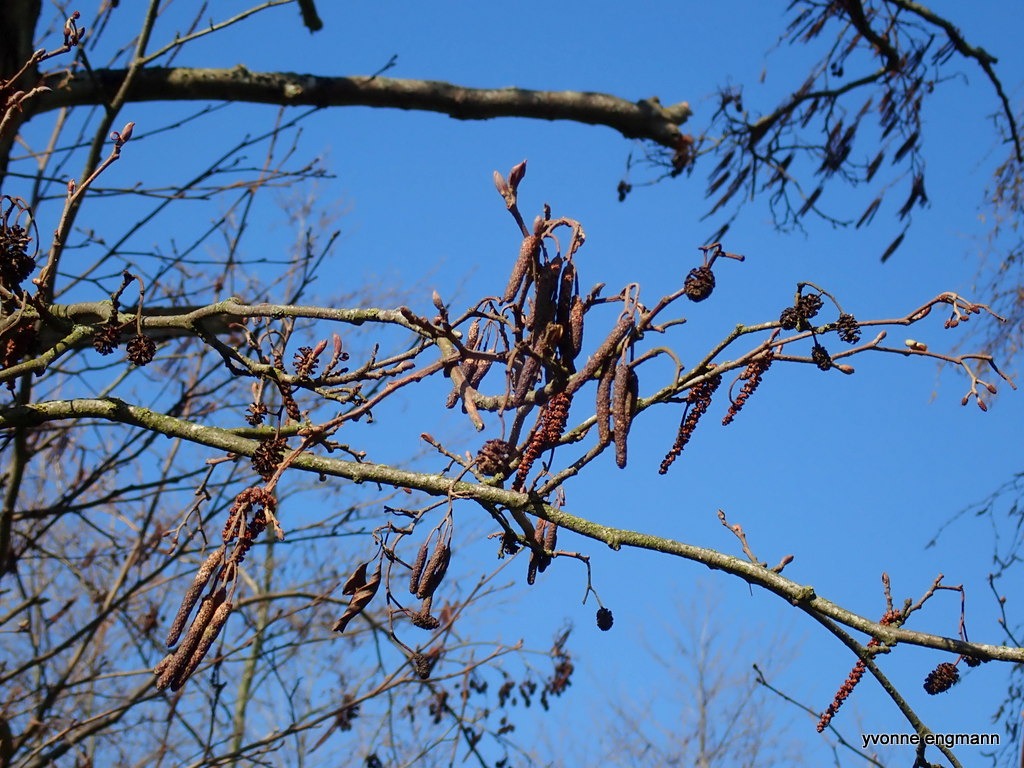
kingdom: Plantae
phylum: Tracheophyta
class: Magnoliopsida
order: Fagales
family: Betulaceae
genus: Alnus
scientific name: Alnus glutinosa
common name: Rød-el
